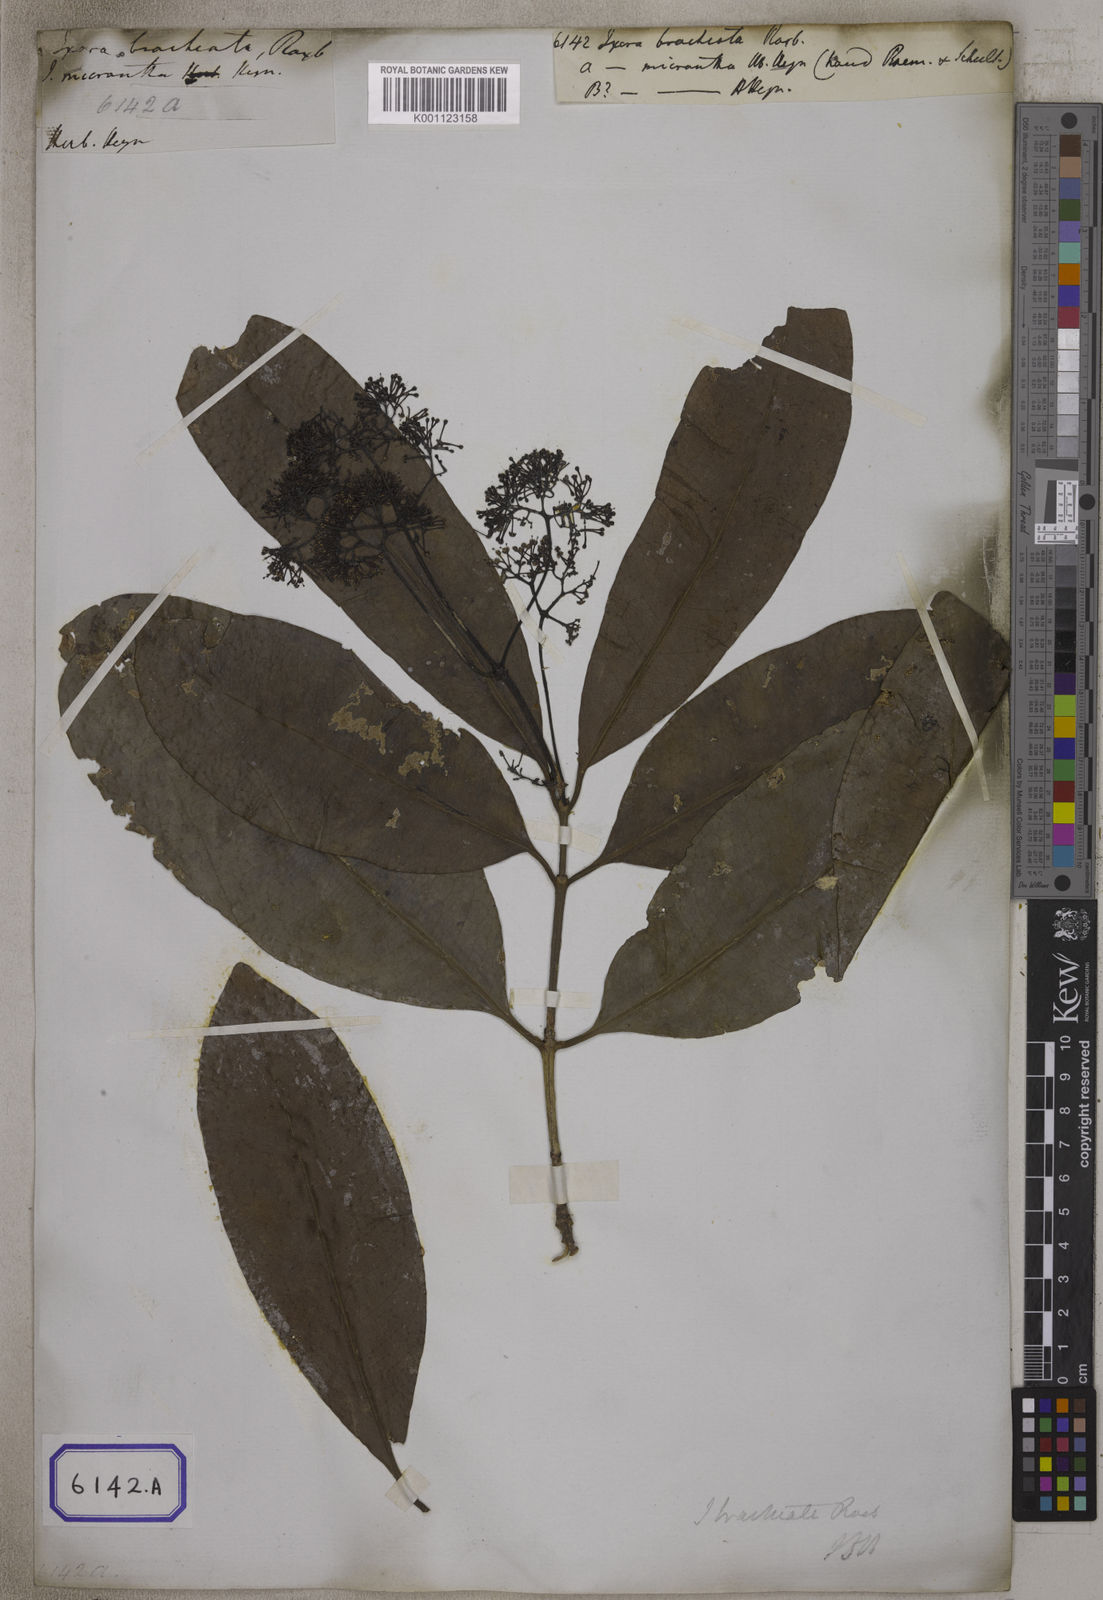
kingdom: Plantae
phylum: Tracheophyta
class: Magnoliopsida
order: Gentianales
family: Rubiaceae
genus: Ixora
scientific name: Ixora brachiata
